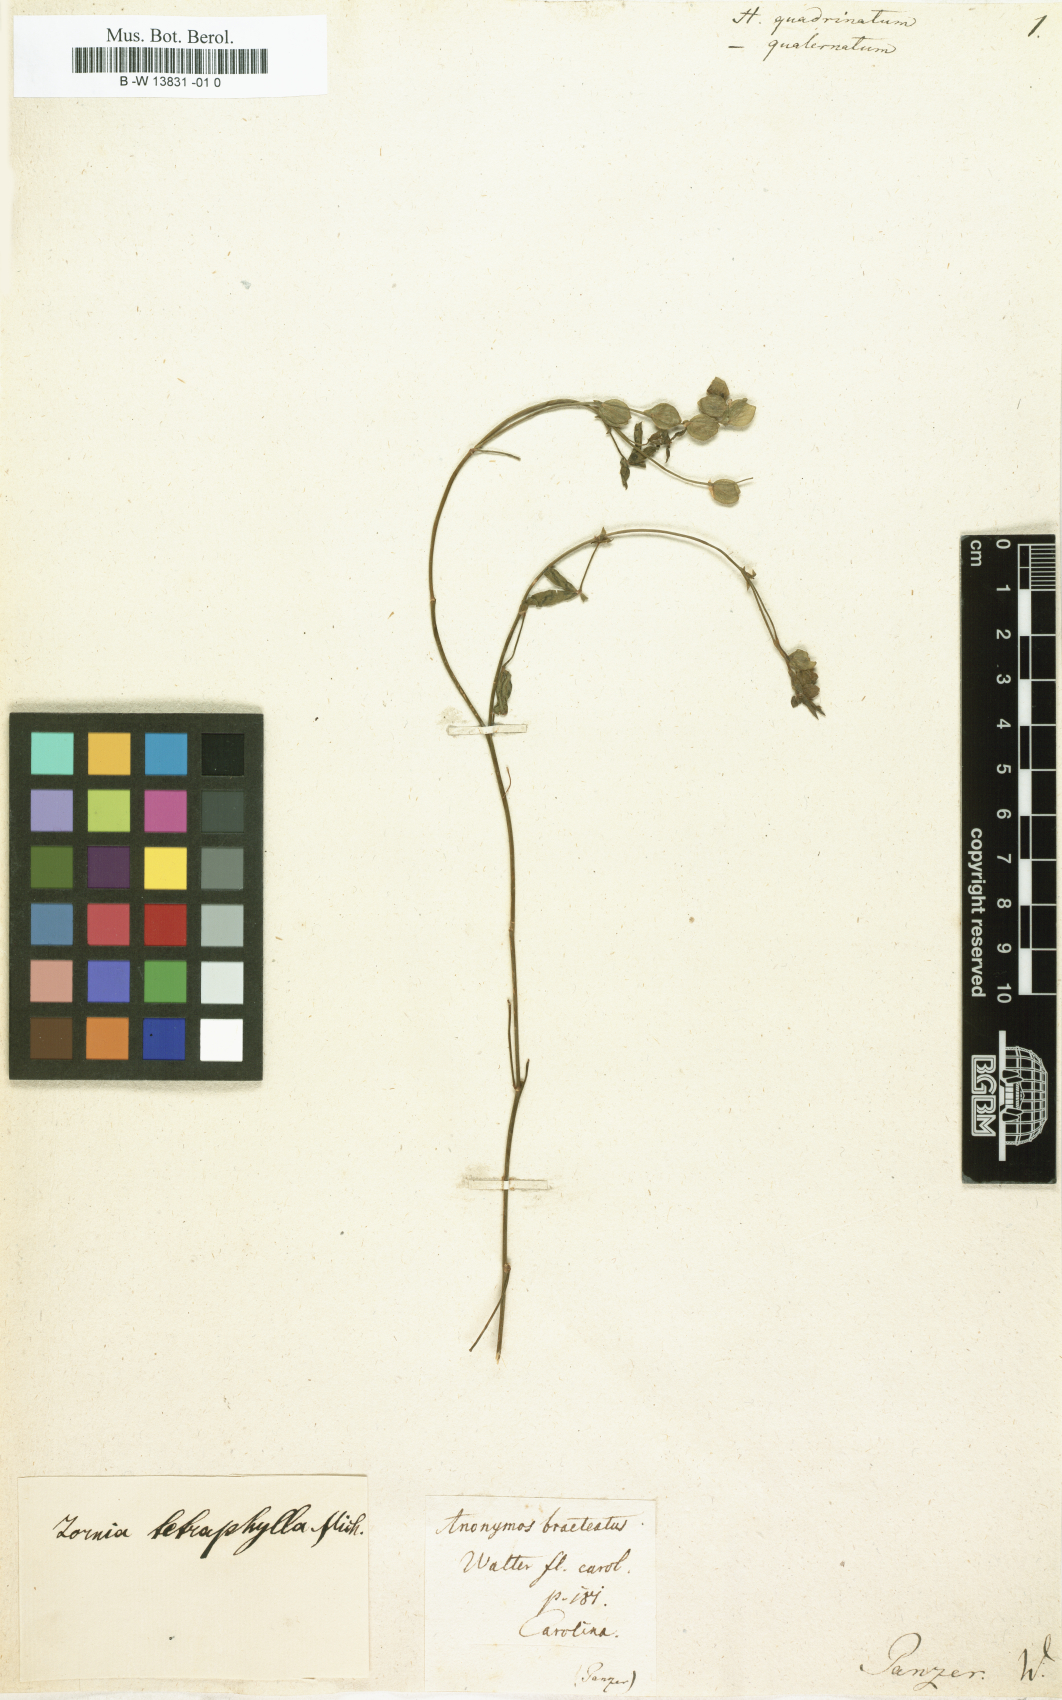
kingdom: Plantae
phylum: Tracheophyta
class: Magnoliopsida
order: Fabales
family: Fabaceae
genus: Hedysarum
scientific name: Hedysarum
